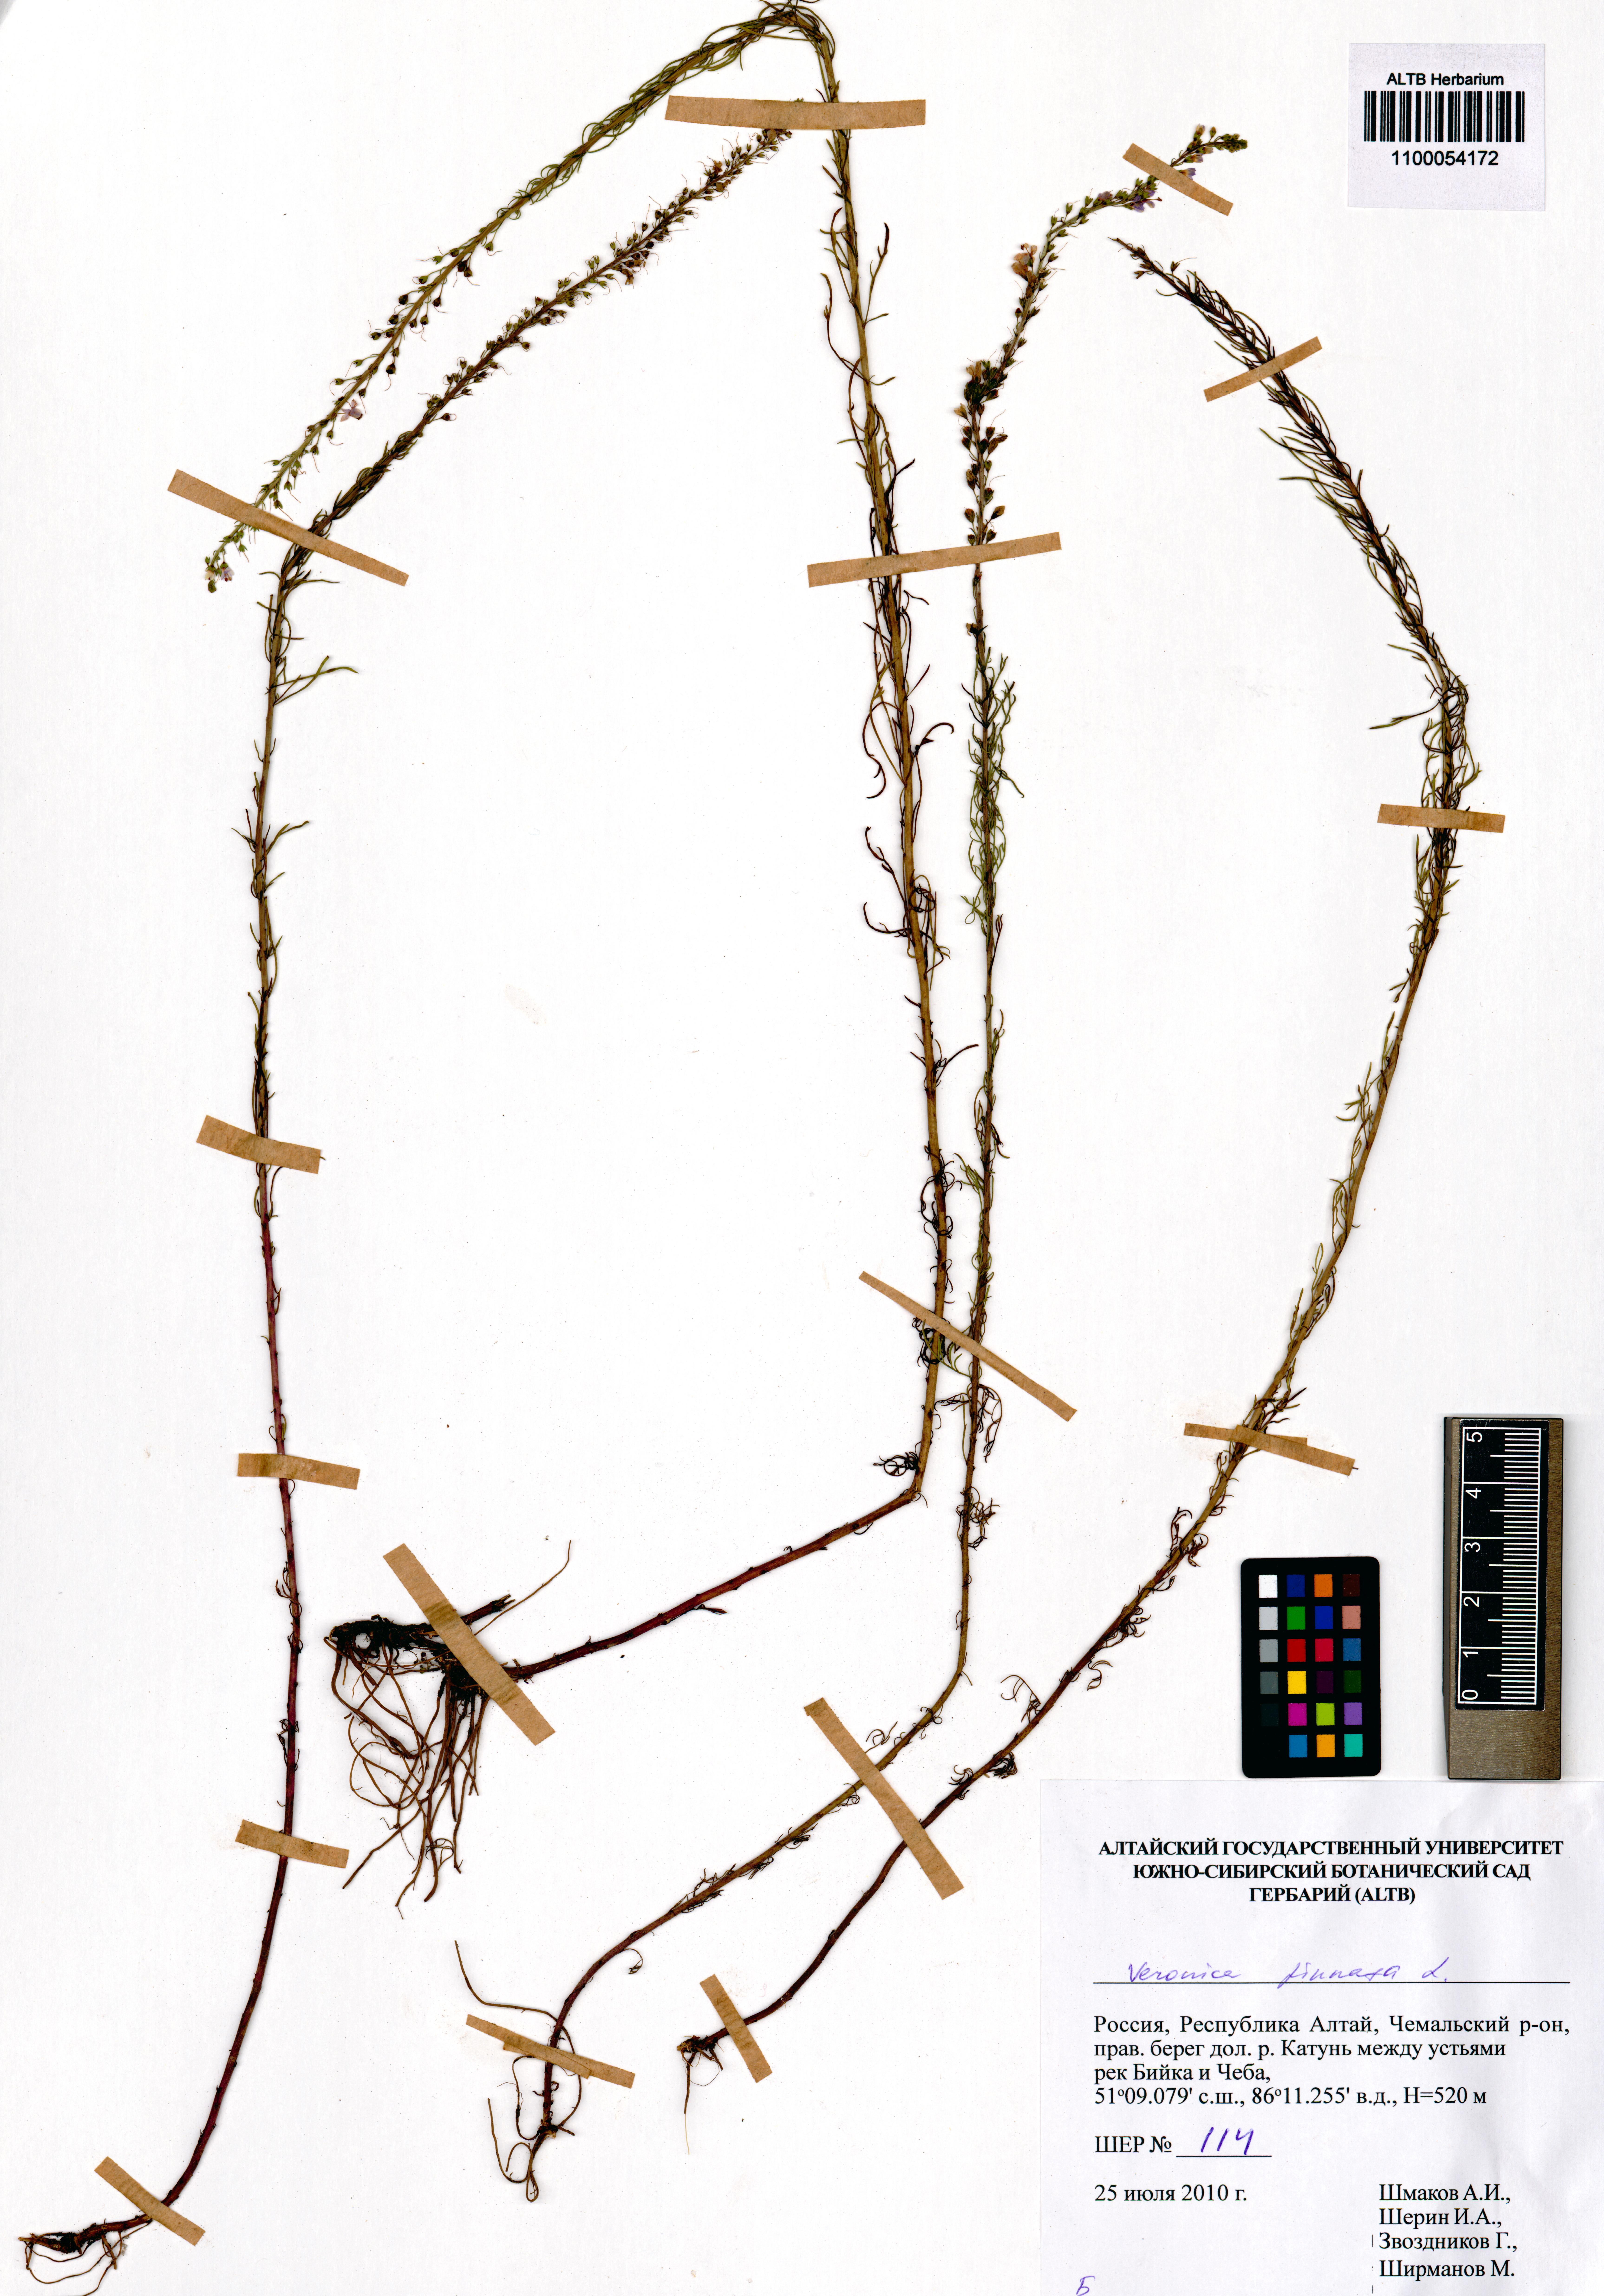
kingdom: Plantae
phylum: Tracheophyta
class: Magnoliopsida
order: Lamiales
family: Plantaginaceae
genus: Veronica
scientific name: Veronica pinnata
